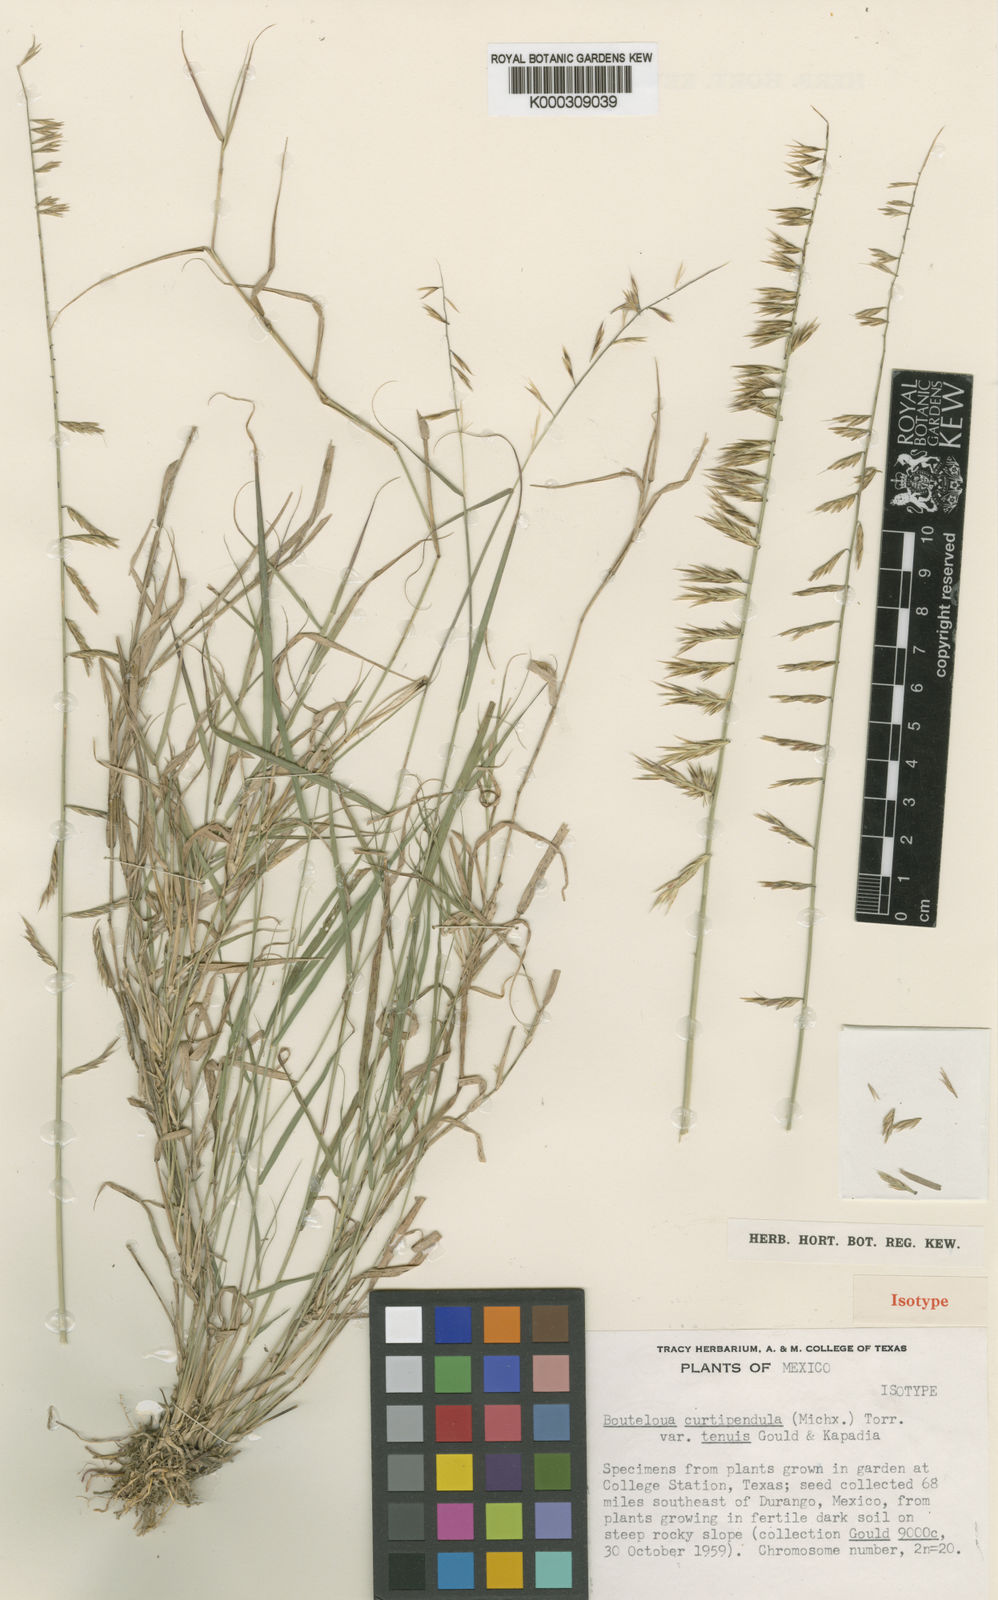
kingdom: Plantae
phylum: Tracheophyta
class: Liliopsida
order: Poales
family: Poaceae
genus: Bouteloua
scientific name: Bouteloua curtipendula
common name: Side-oats grama
